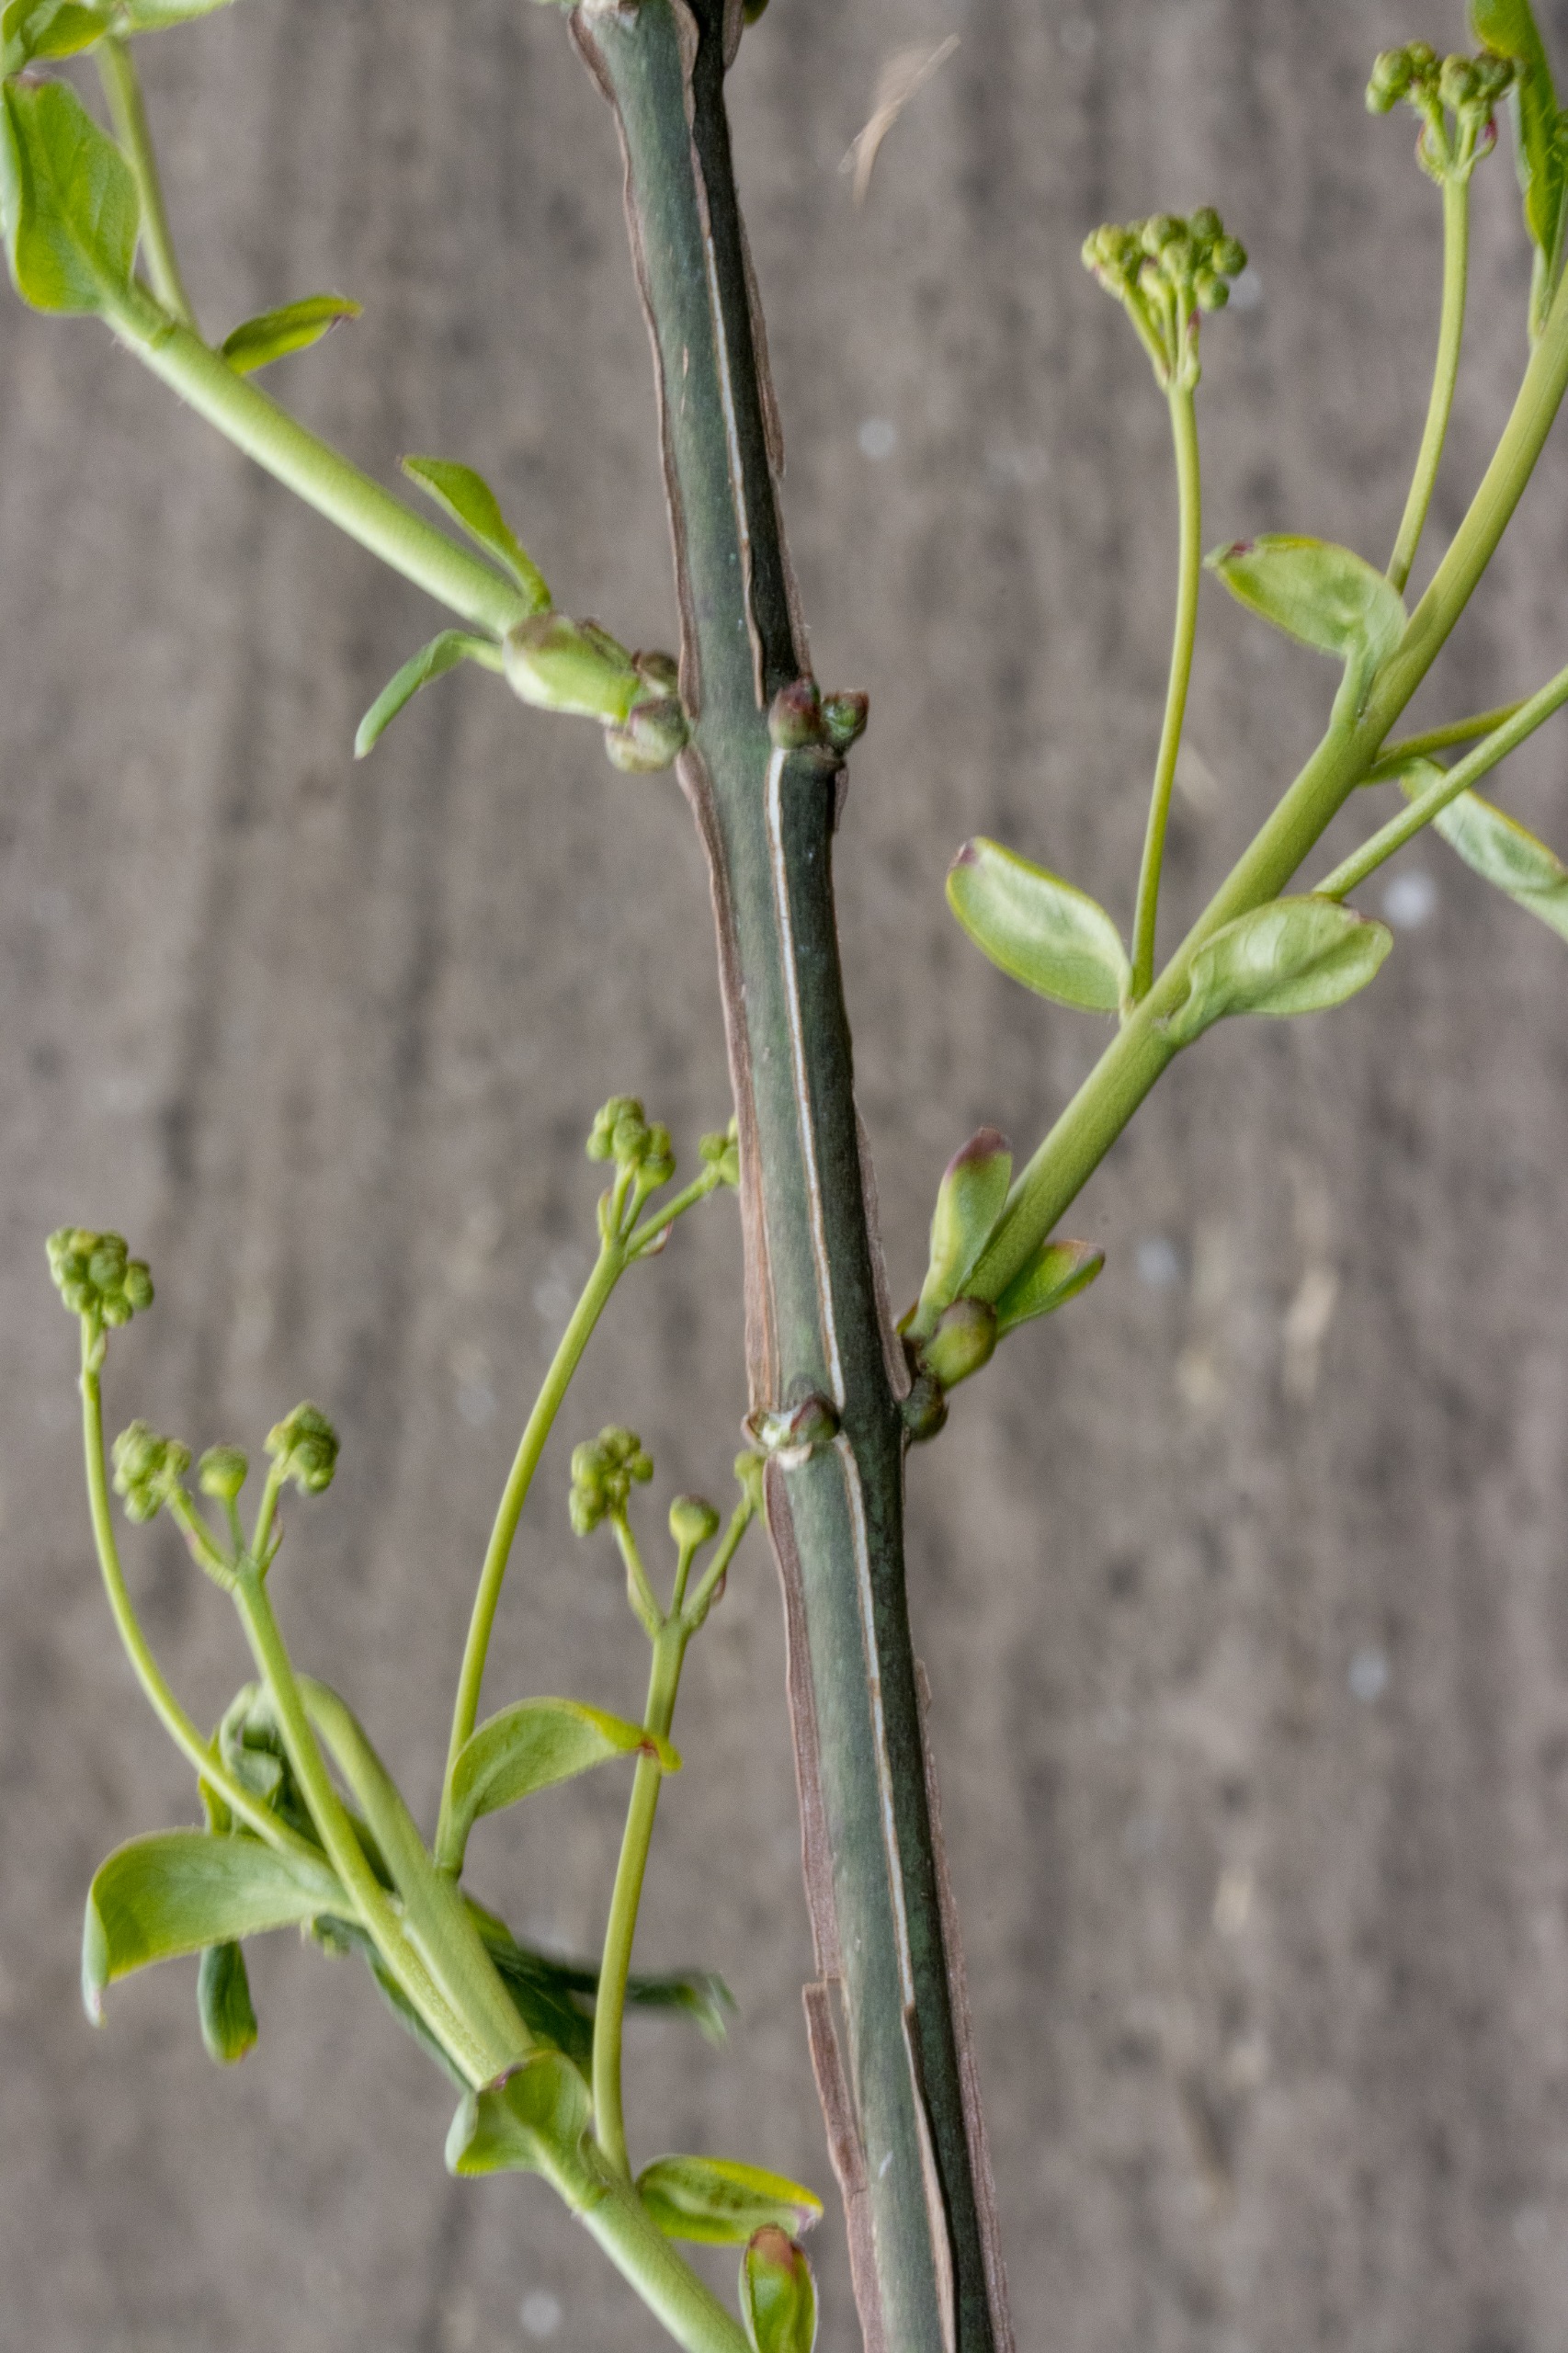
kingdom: Plantae
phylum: Tracheophyta
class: Magnoliopsida
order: Celastrales
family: Celastraceae
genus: Euonymus
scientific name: Euonymus europaeus
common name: Benved
